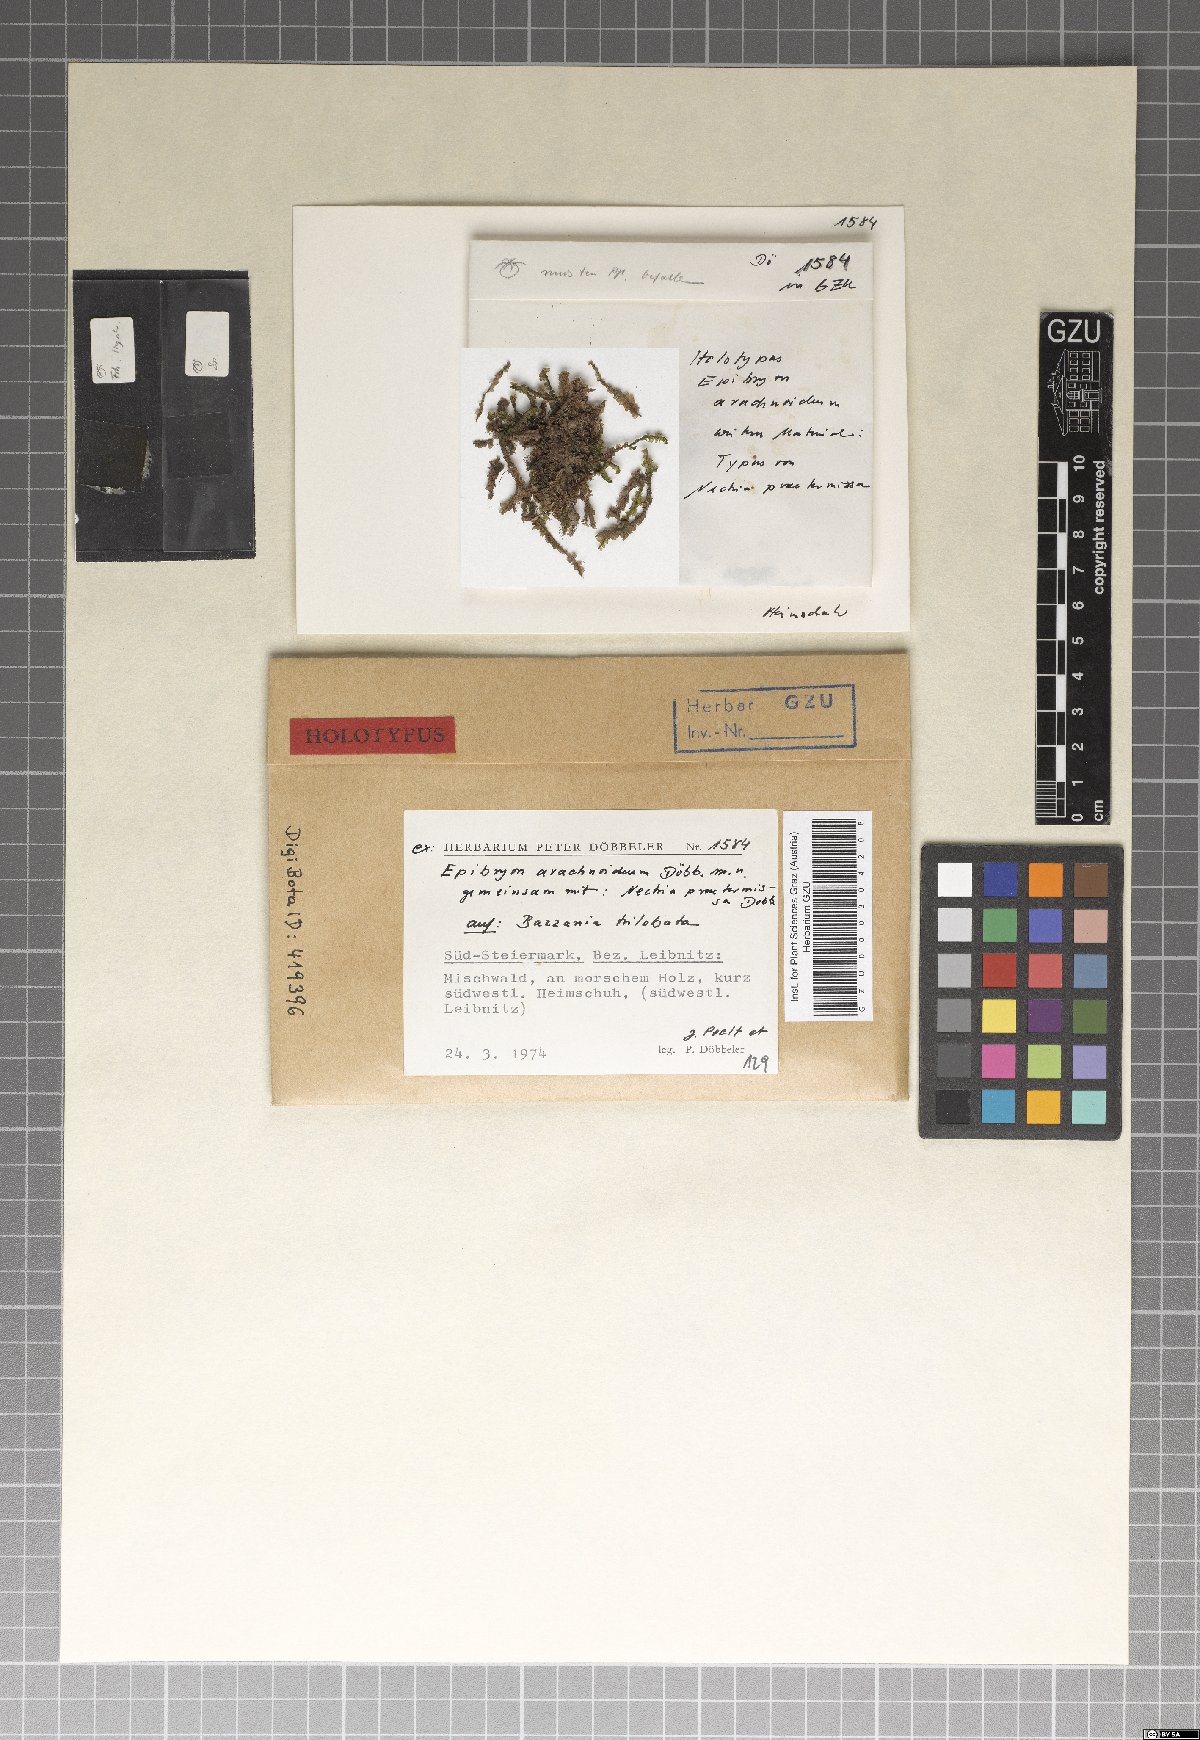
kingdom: Fungi
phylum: Ascomycota
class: Eurotiomycetes
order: Chaetothyriales
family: Epibryaceae
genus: Epibryon
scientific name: Epibryon arachnoideum
